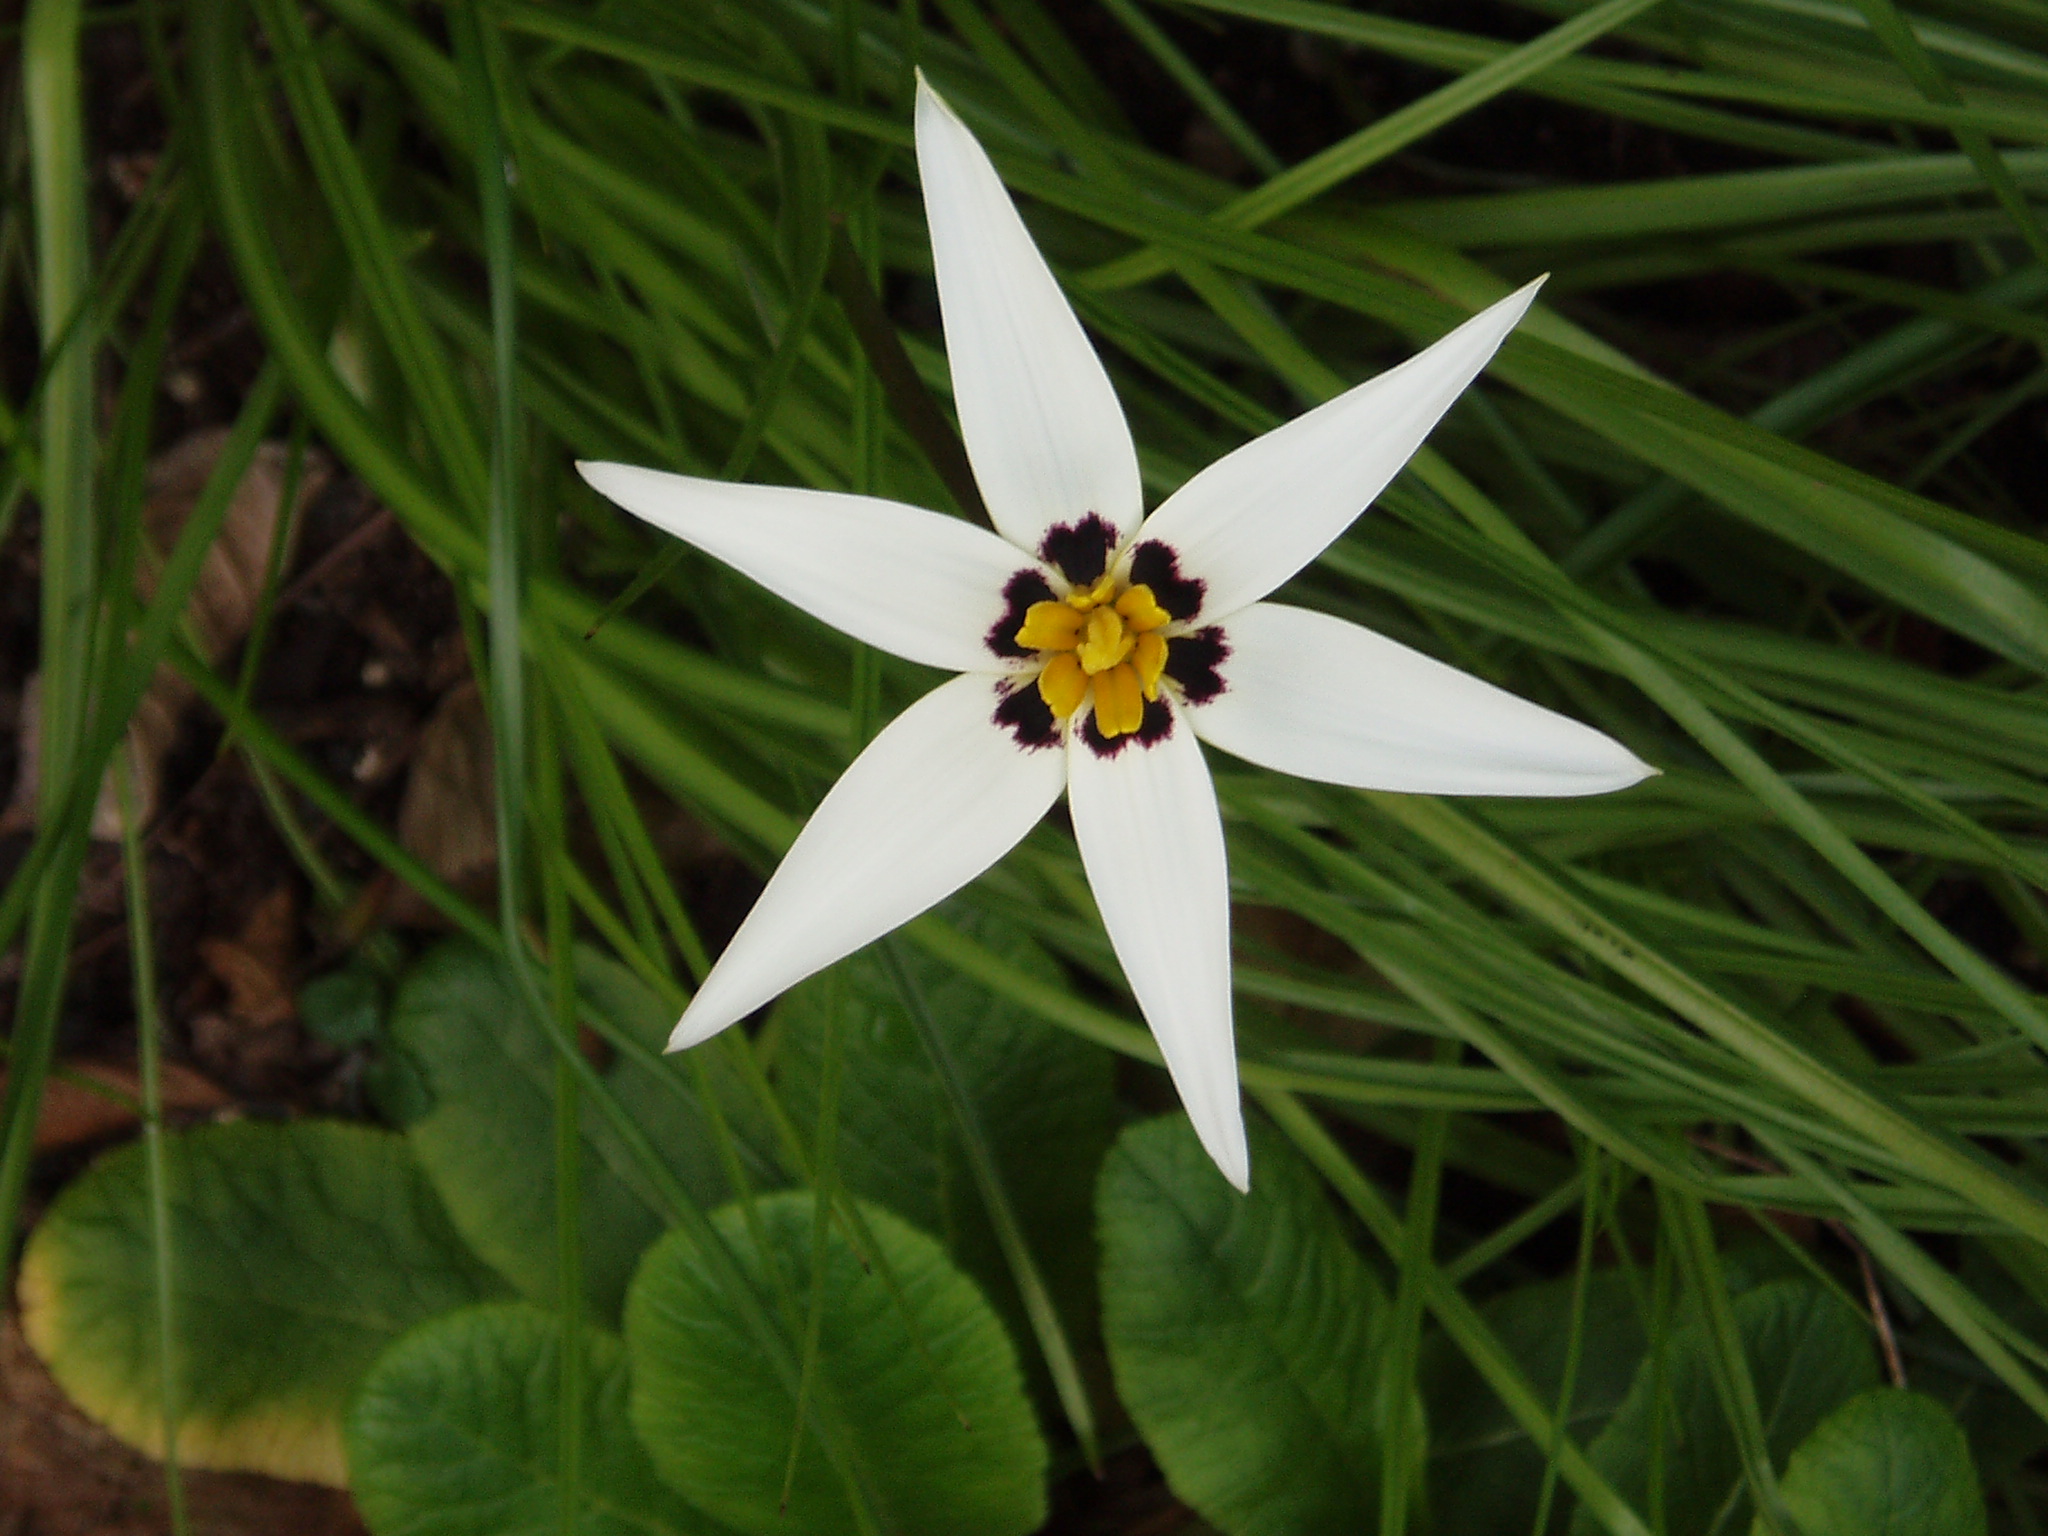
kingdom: Plantae
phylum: Tracheophyta
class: Liliopsida
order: Asparagales
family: Hypoxidaceae
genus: Pauridia
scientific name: Pauridia capensis
